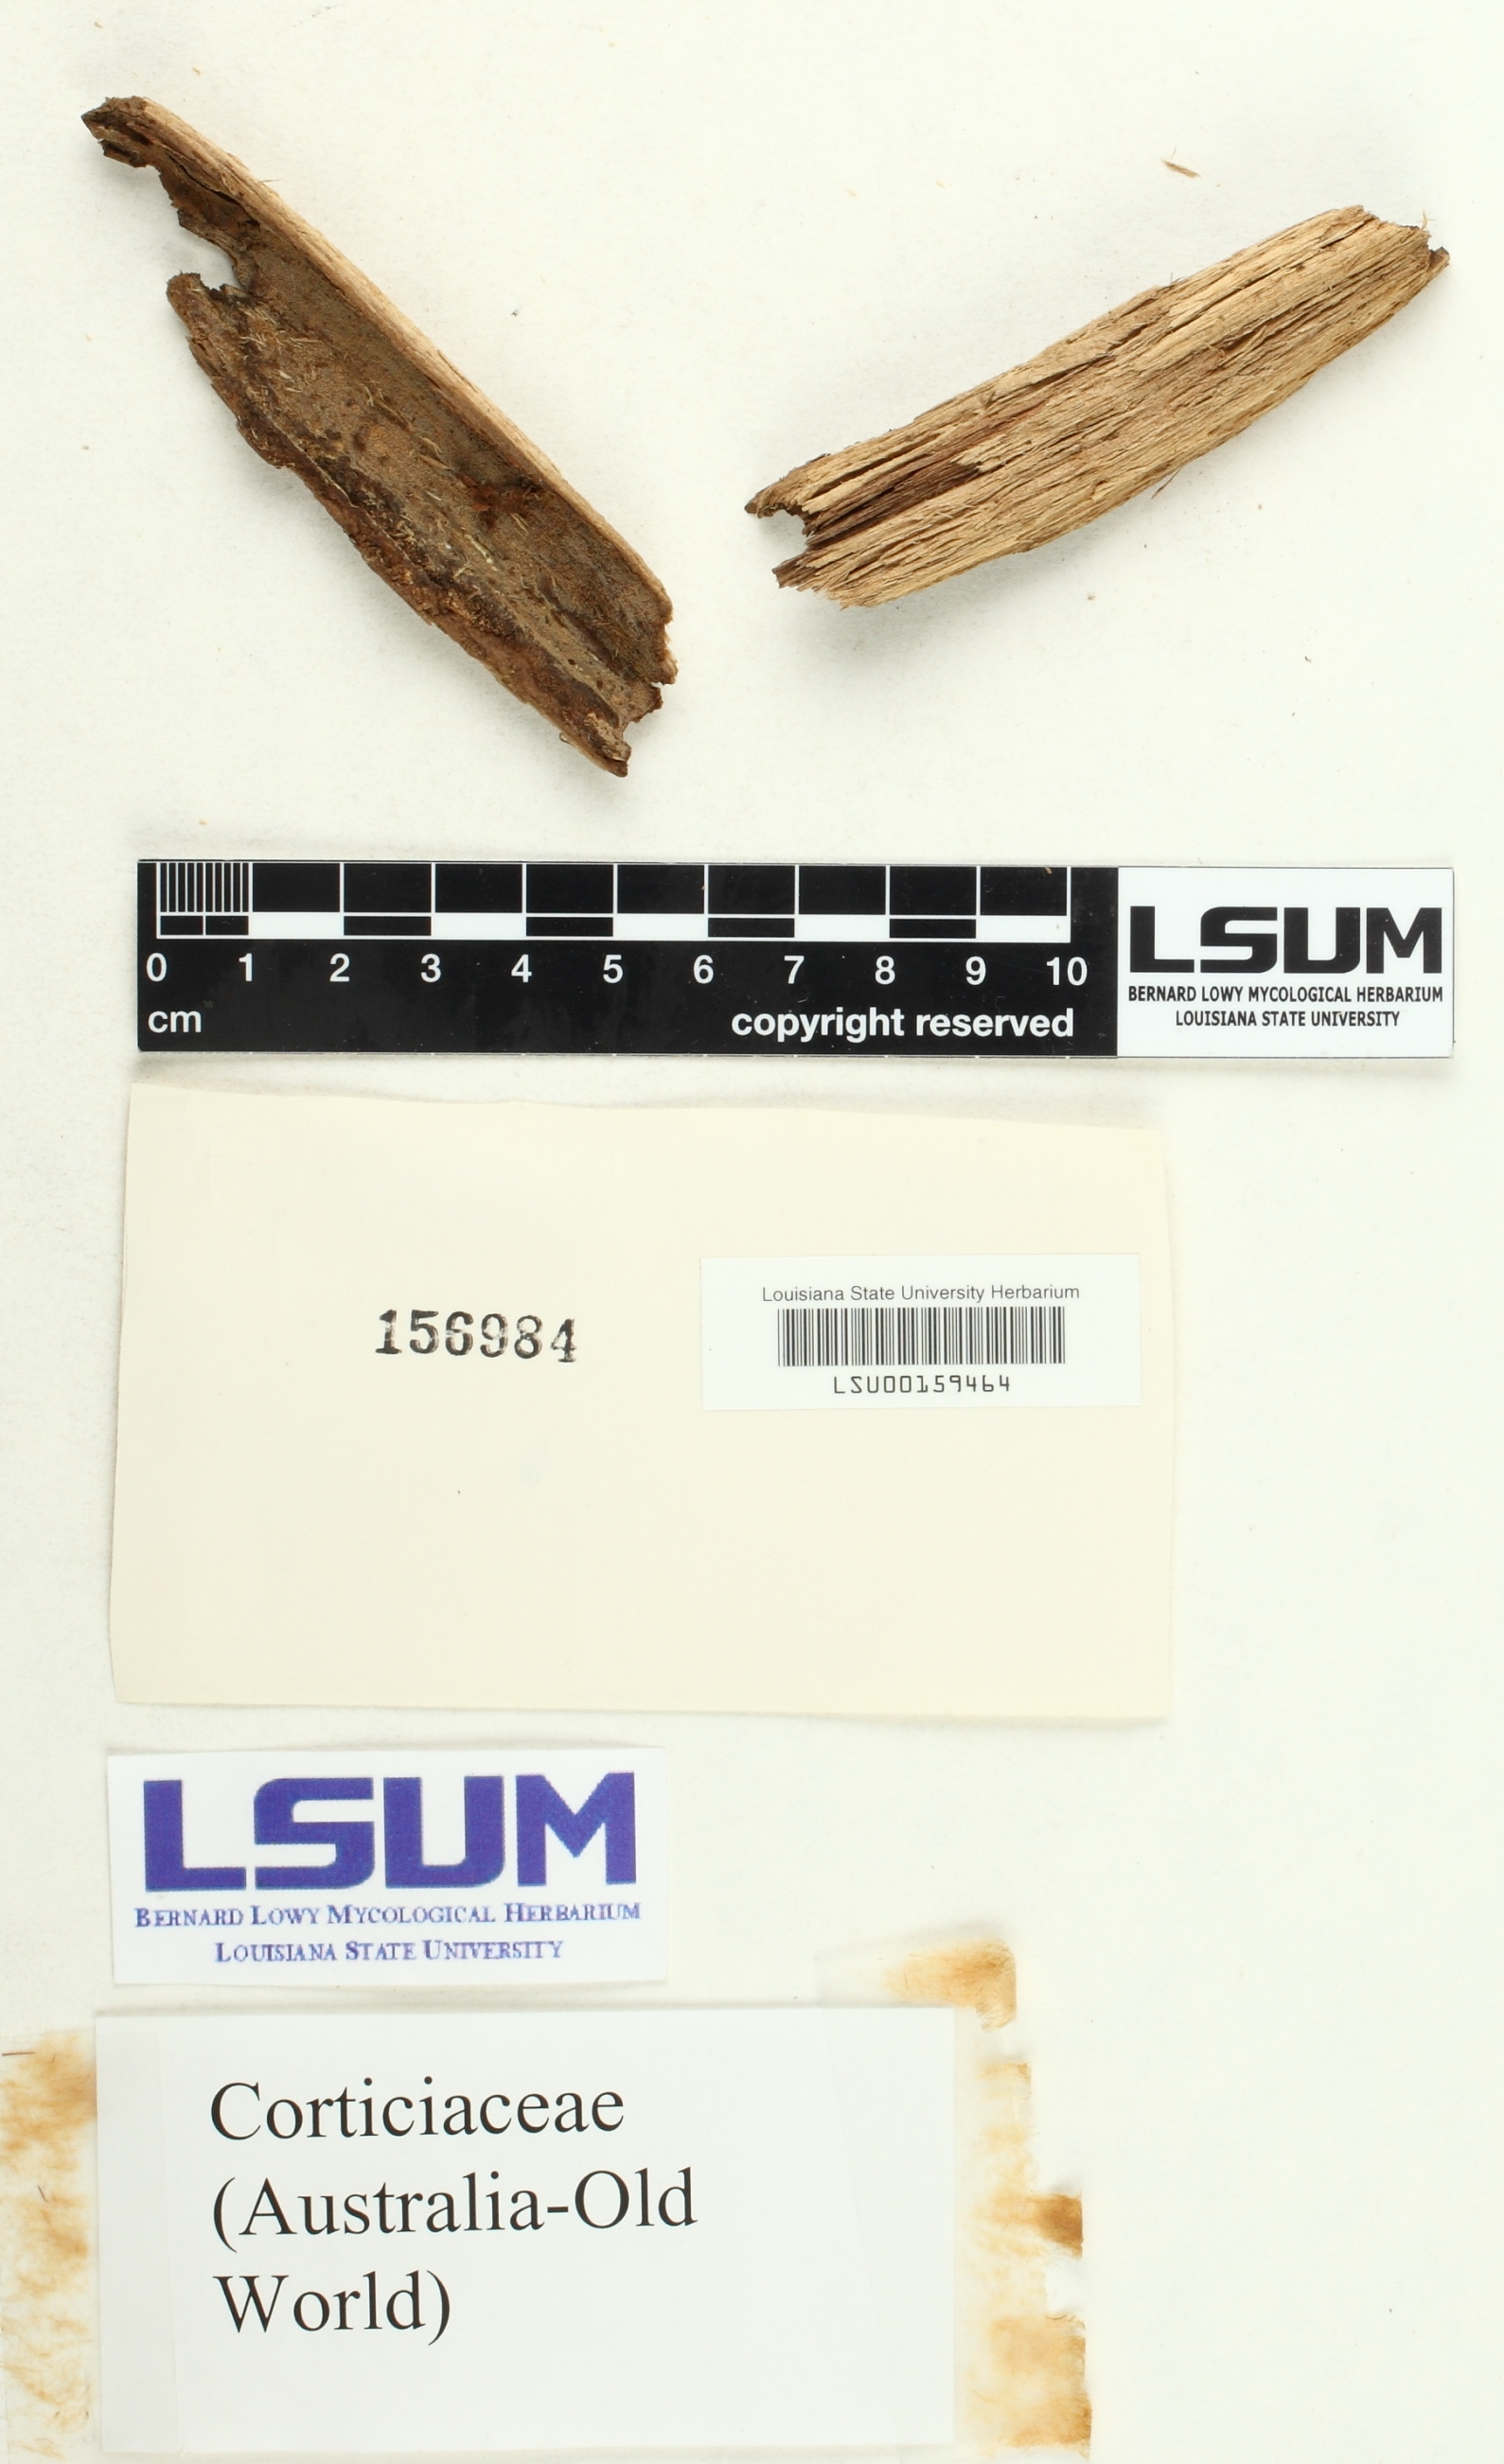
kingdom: Fungi
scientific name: Fungi
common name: Fungi
